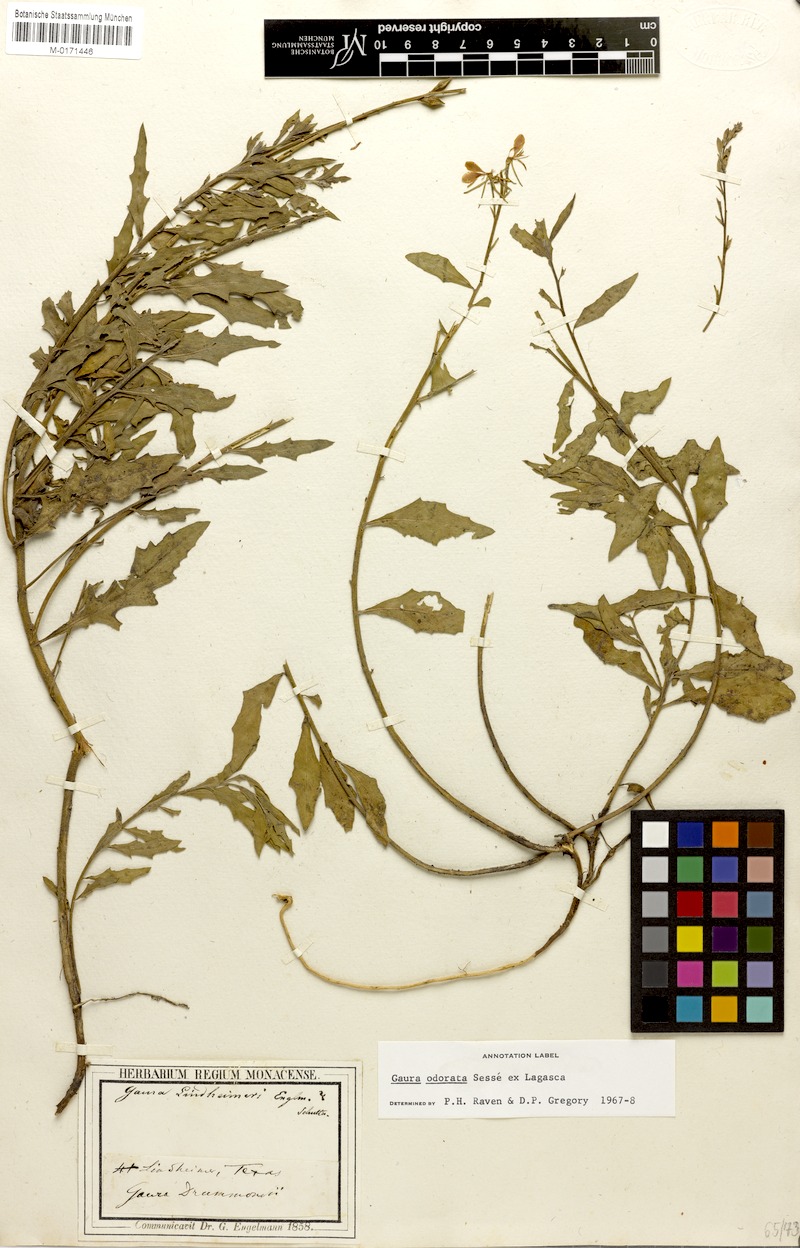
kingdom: Plantae
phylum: Tracheophyta
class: Magnoliopsida
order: Myrtales
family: Onagraceae
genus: Oenothera
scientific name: Oenothera
